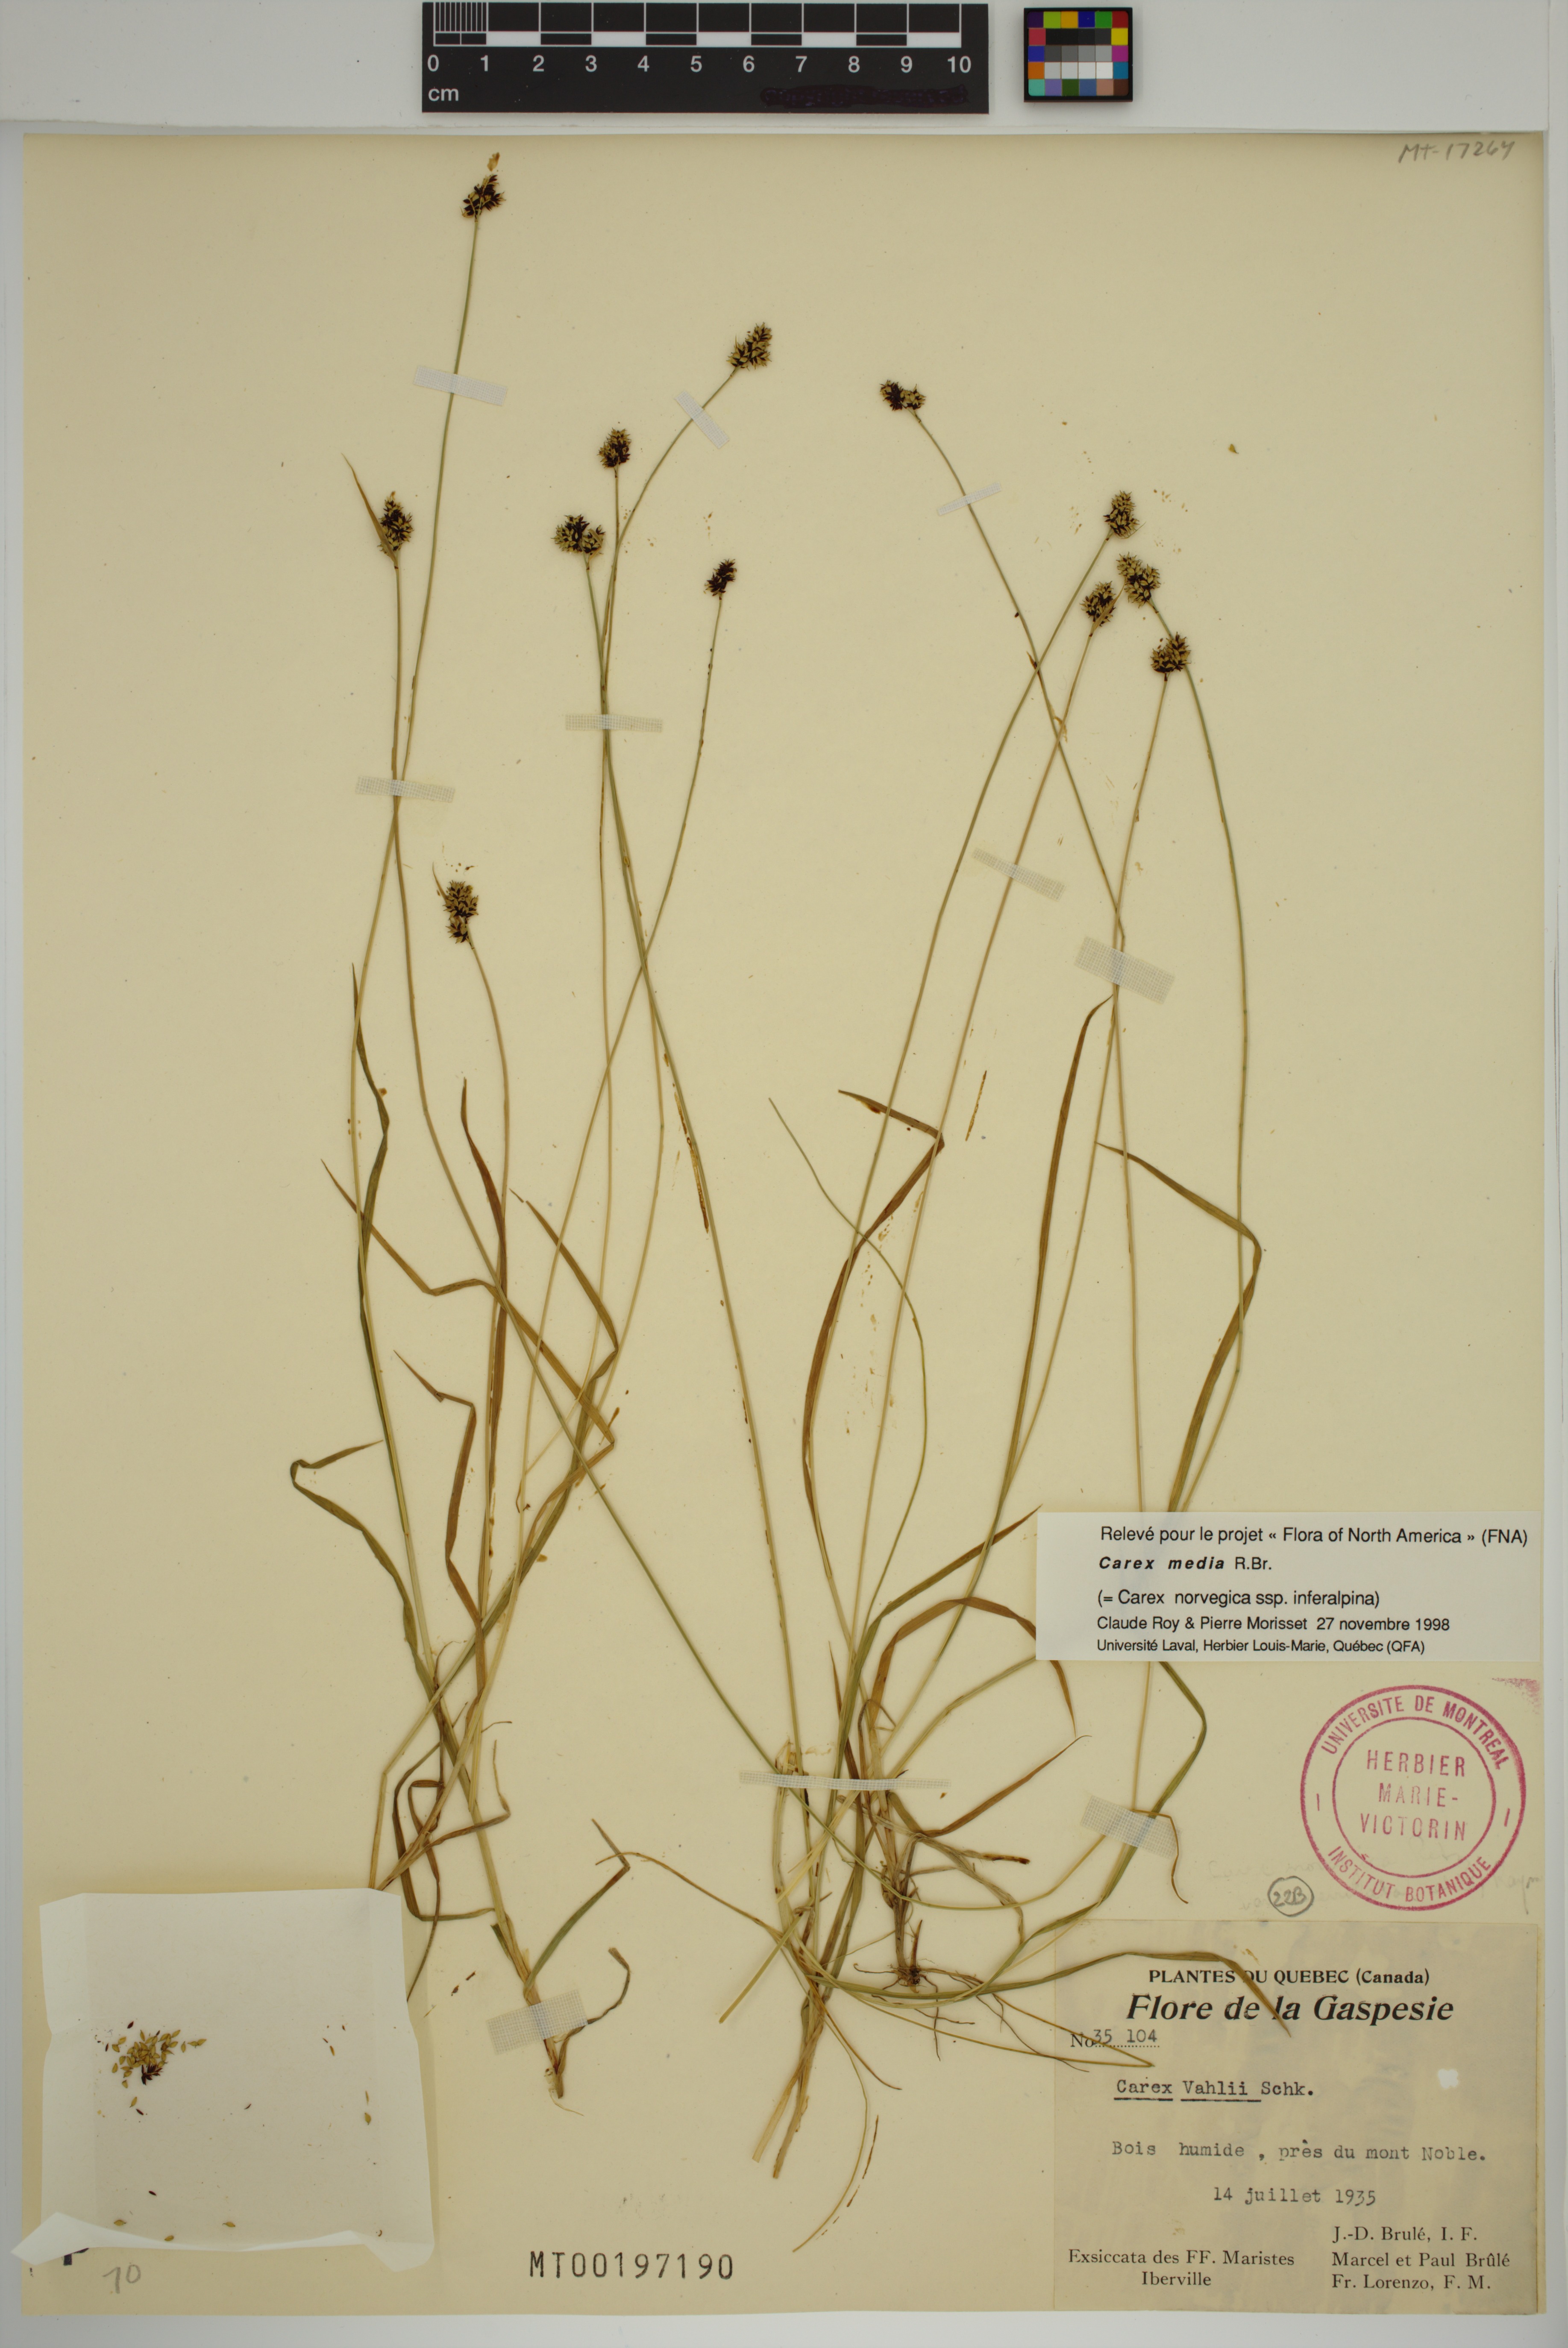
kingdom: Plantae
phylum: Tracheophyta
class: Liliopsida
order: Poales
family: Cyperaceae
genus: Carex
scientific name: Carex media
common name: Alpine sedge
